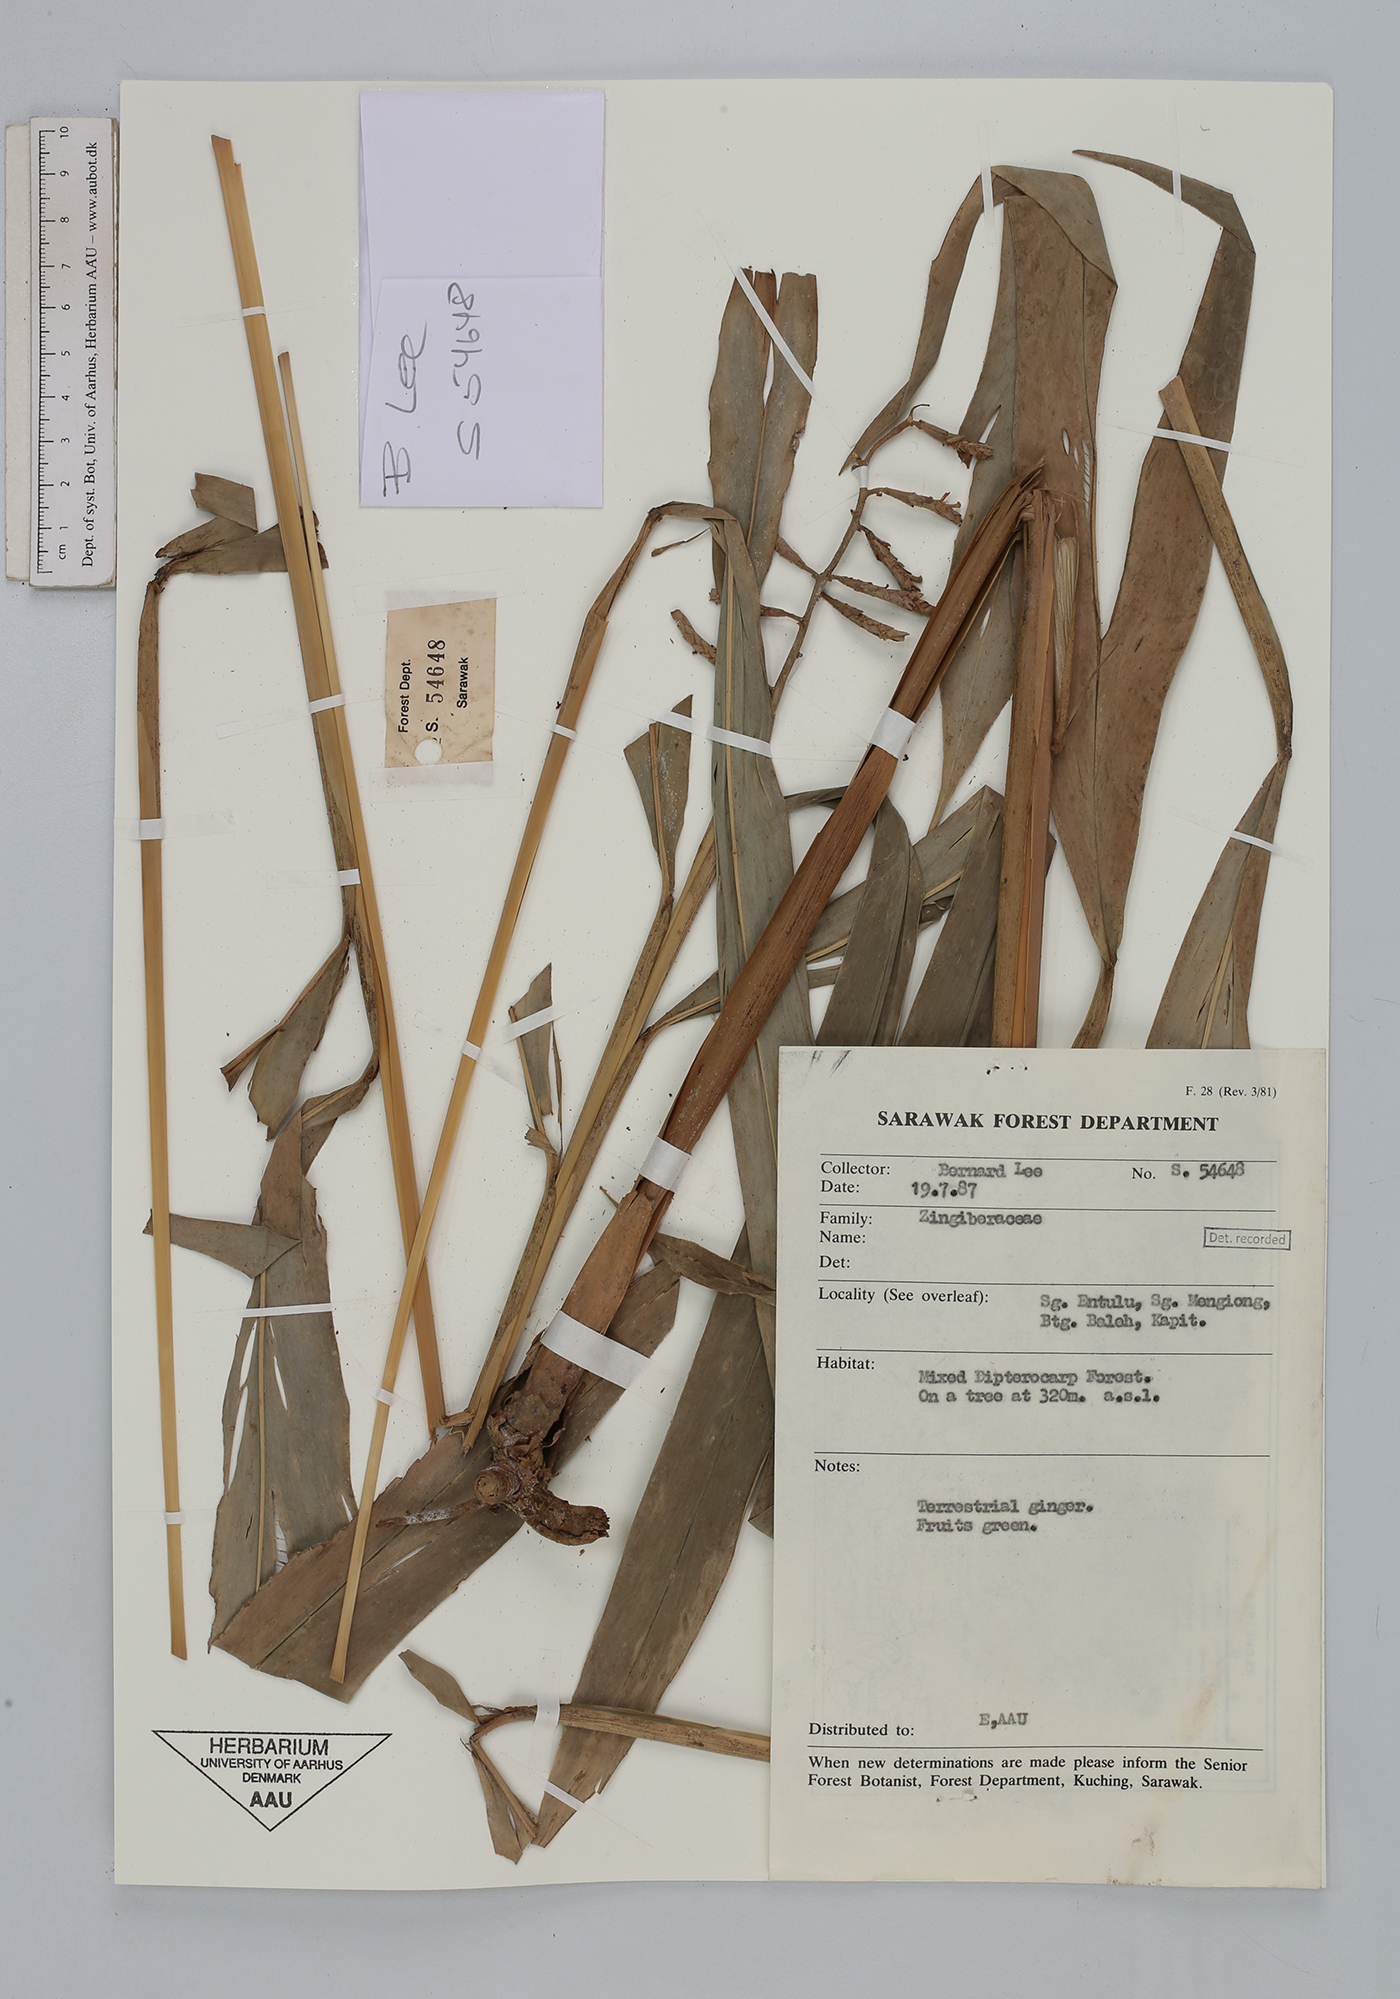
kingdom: Plantae
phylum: Tracheophyta
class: Liliopsida
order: Zingiberales
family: Zingiberaceae
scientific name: Zingiberaceae
